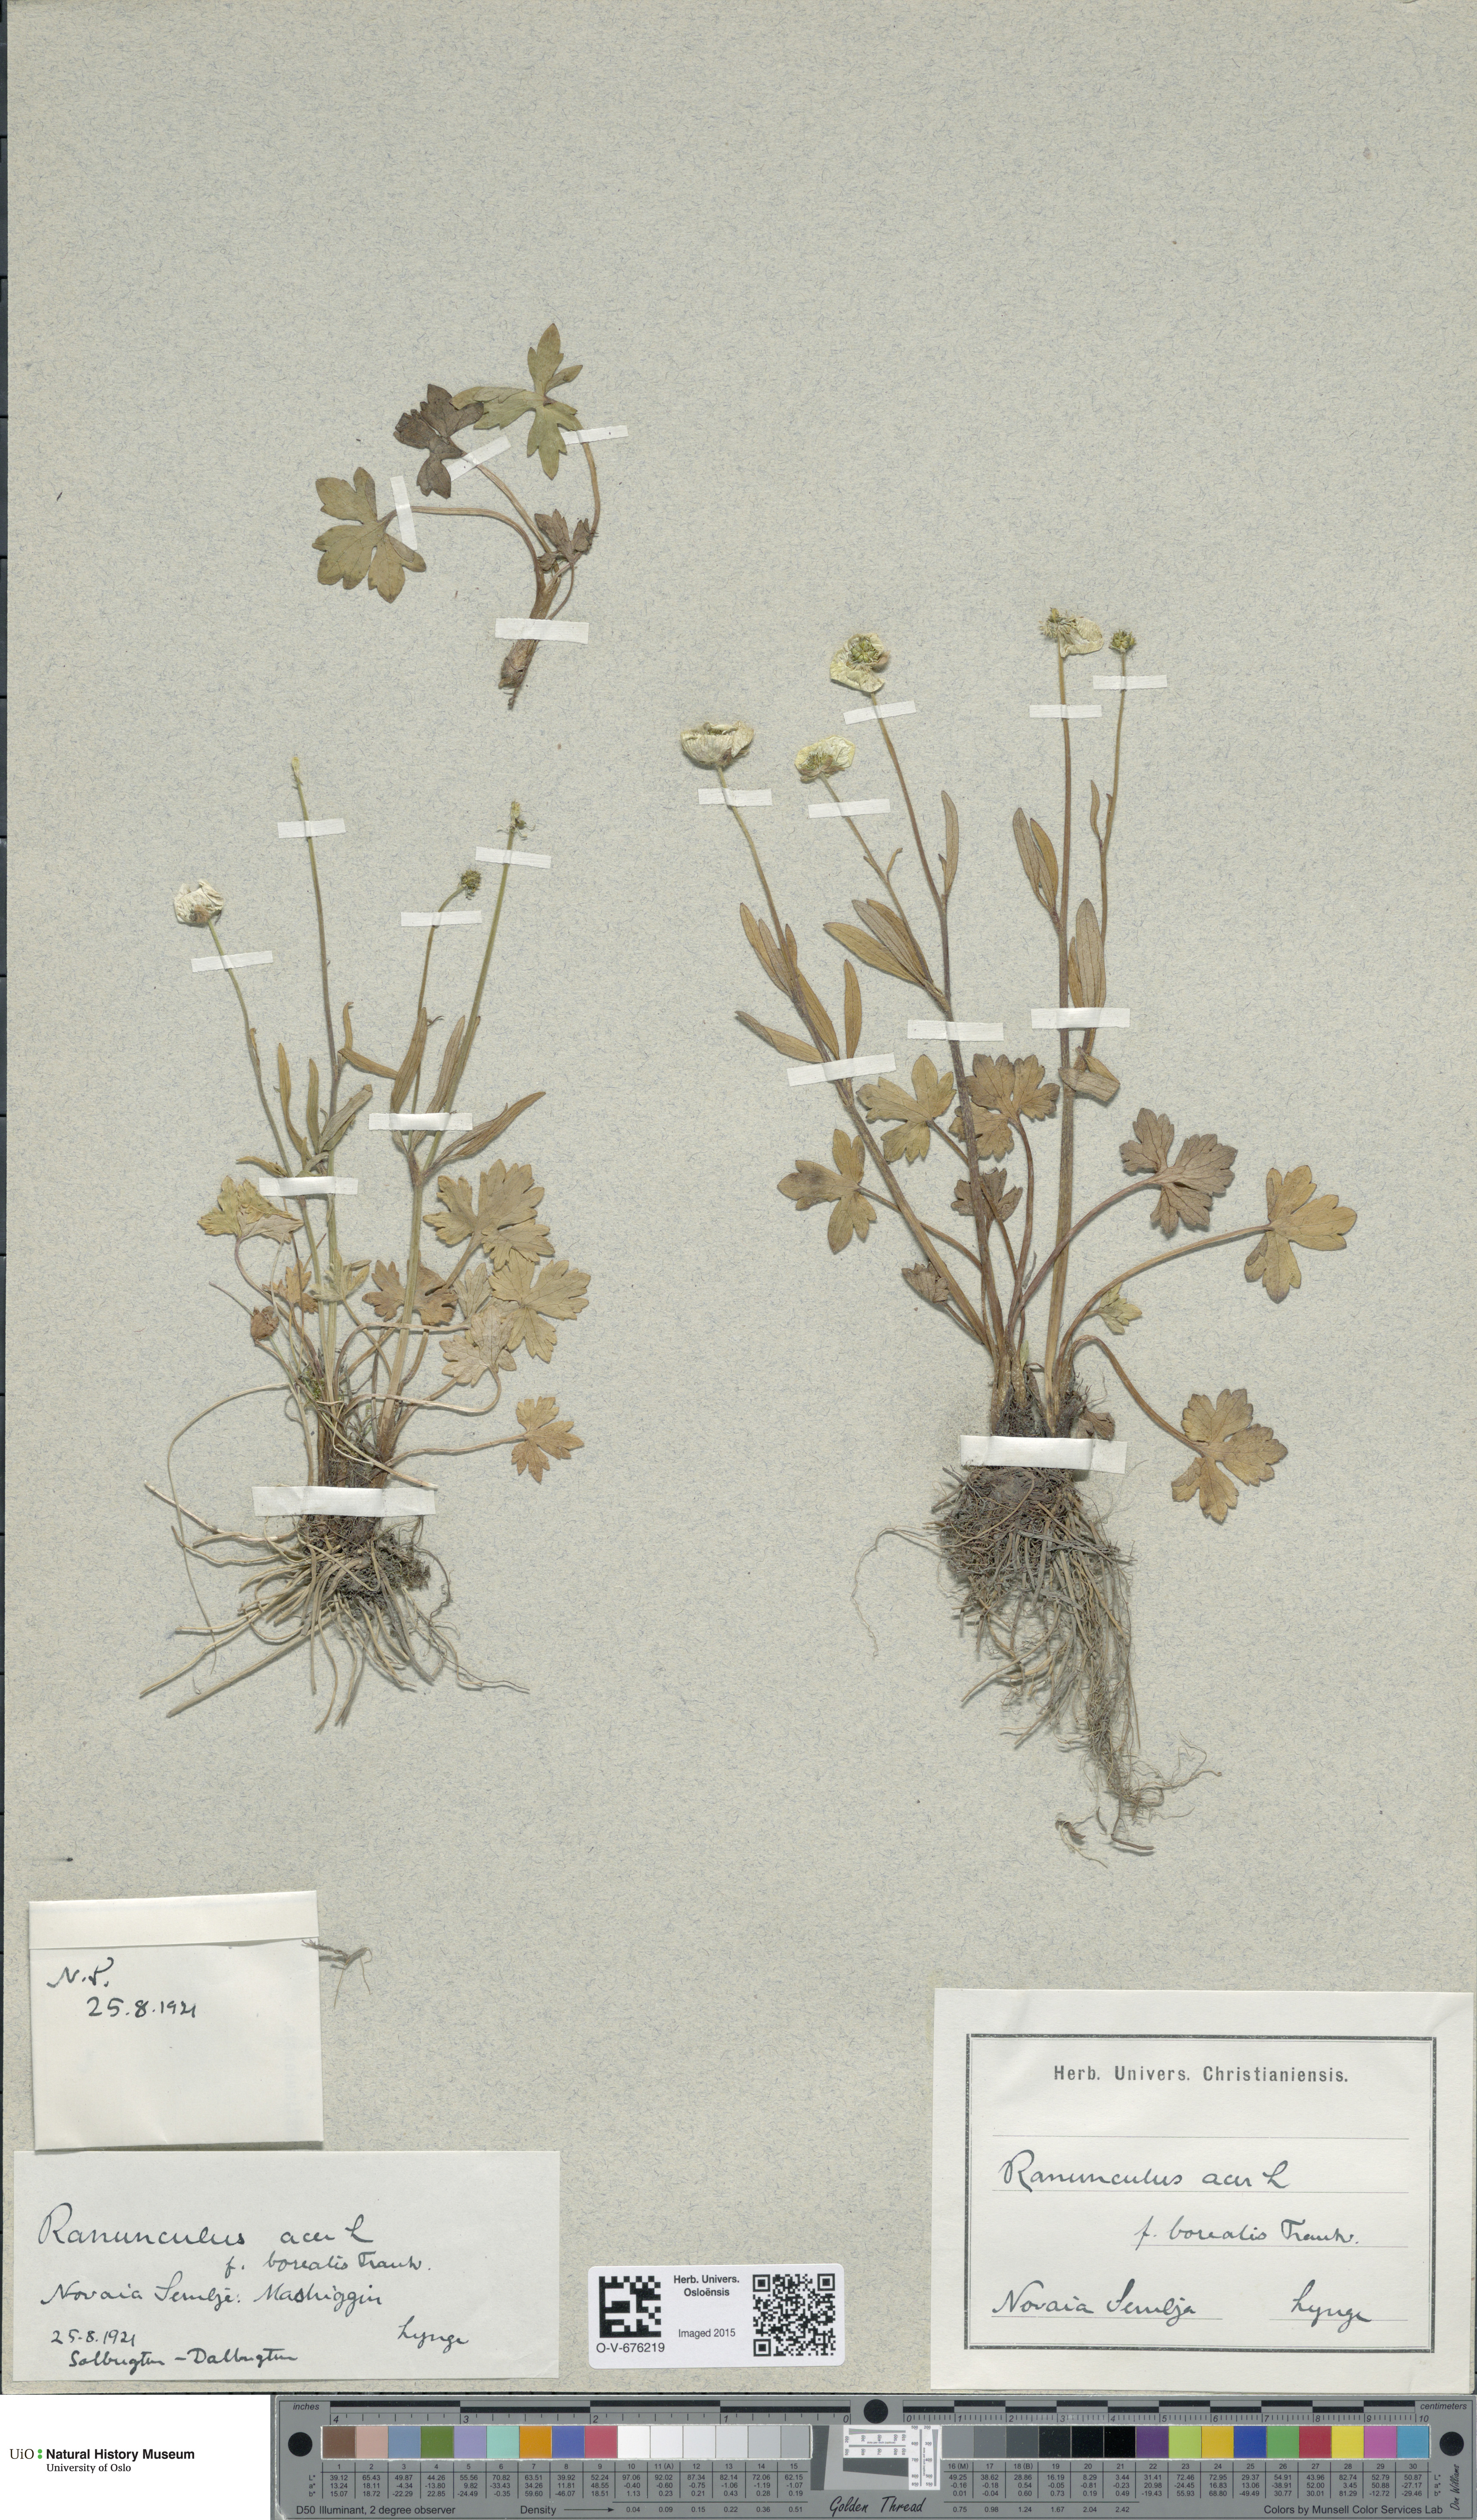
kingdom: Plantae
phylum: Tracheophyta
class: Magnoliopsida
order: Ranunculales
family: Ranunculaceae
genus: Ranunculus
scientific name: Ranunculus propinquus
